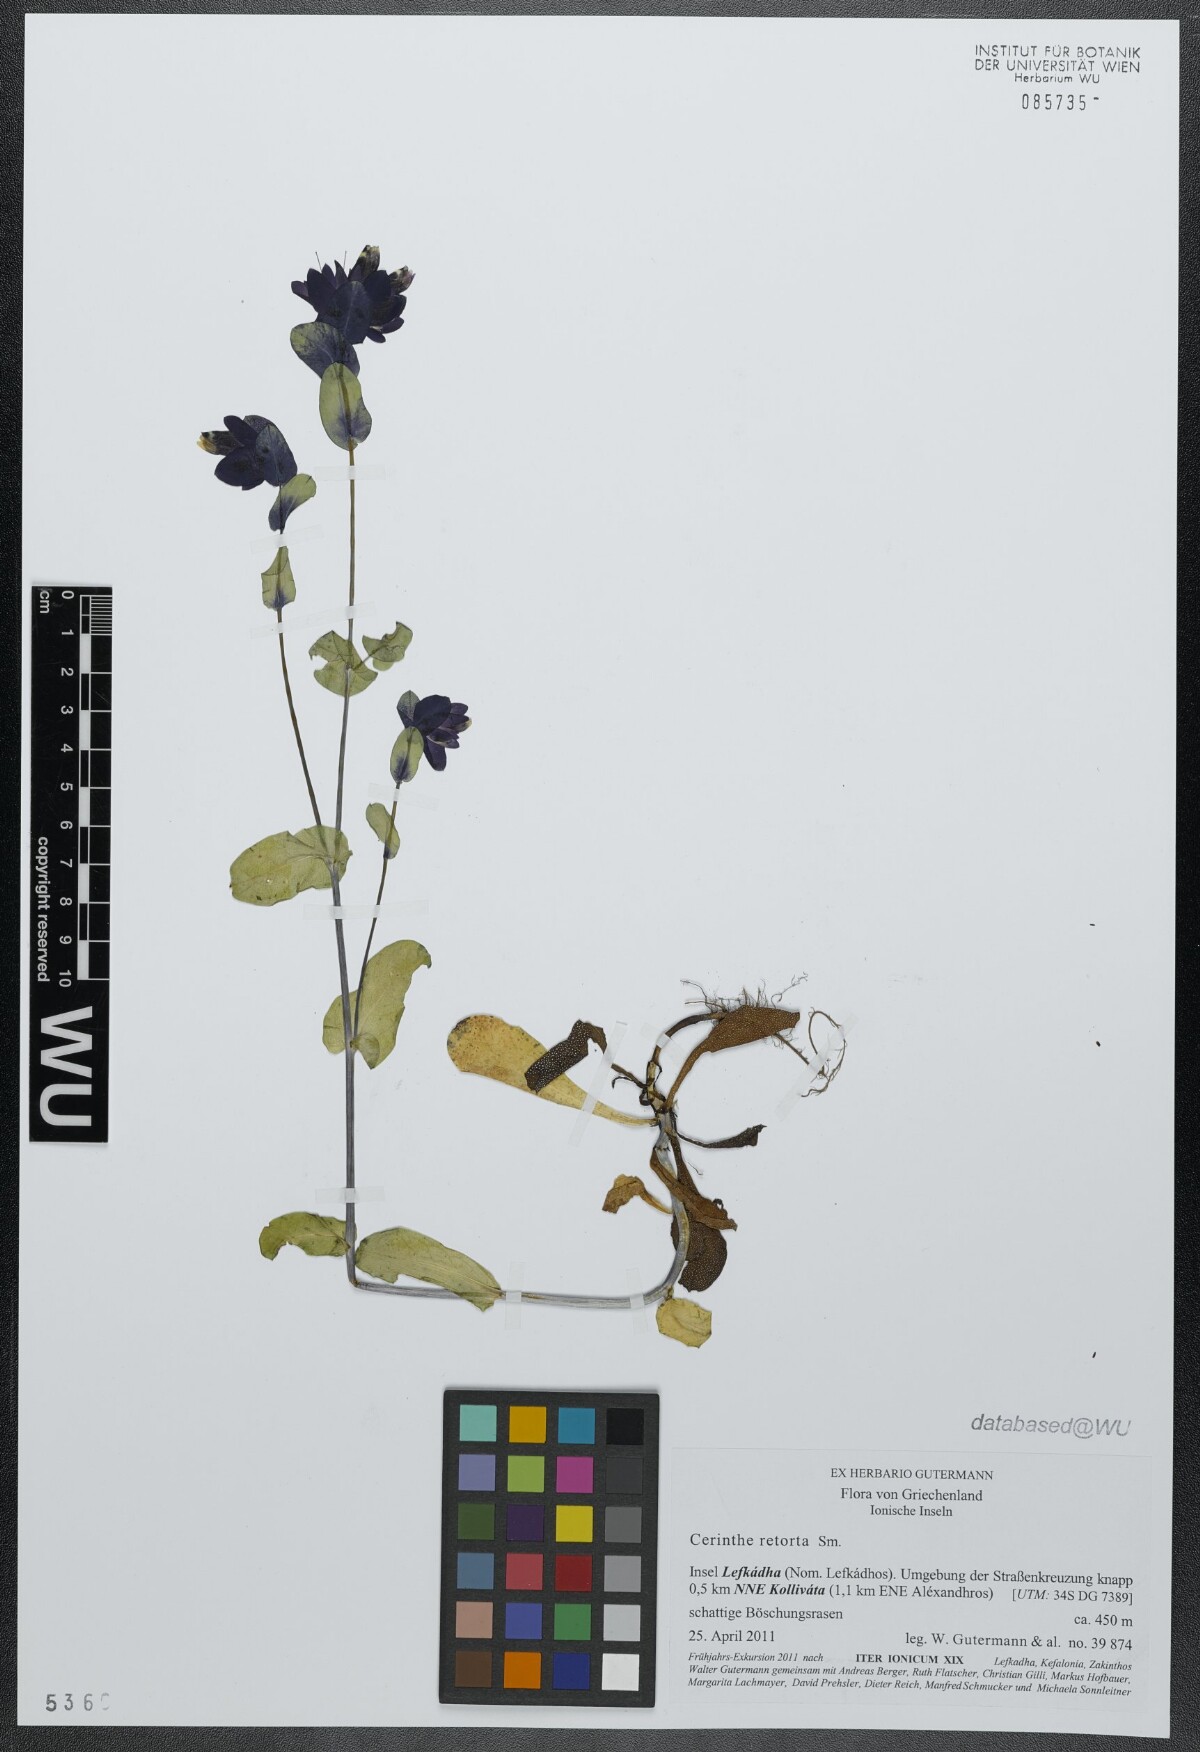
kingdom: Plantae
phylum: Tracheophyta
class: Magnoliopsida
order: Boraginales
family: Boraginaceae
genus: Cerinthe
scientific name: Cerinthe retorta
